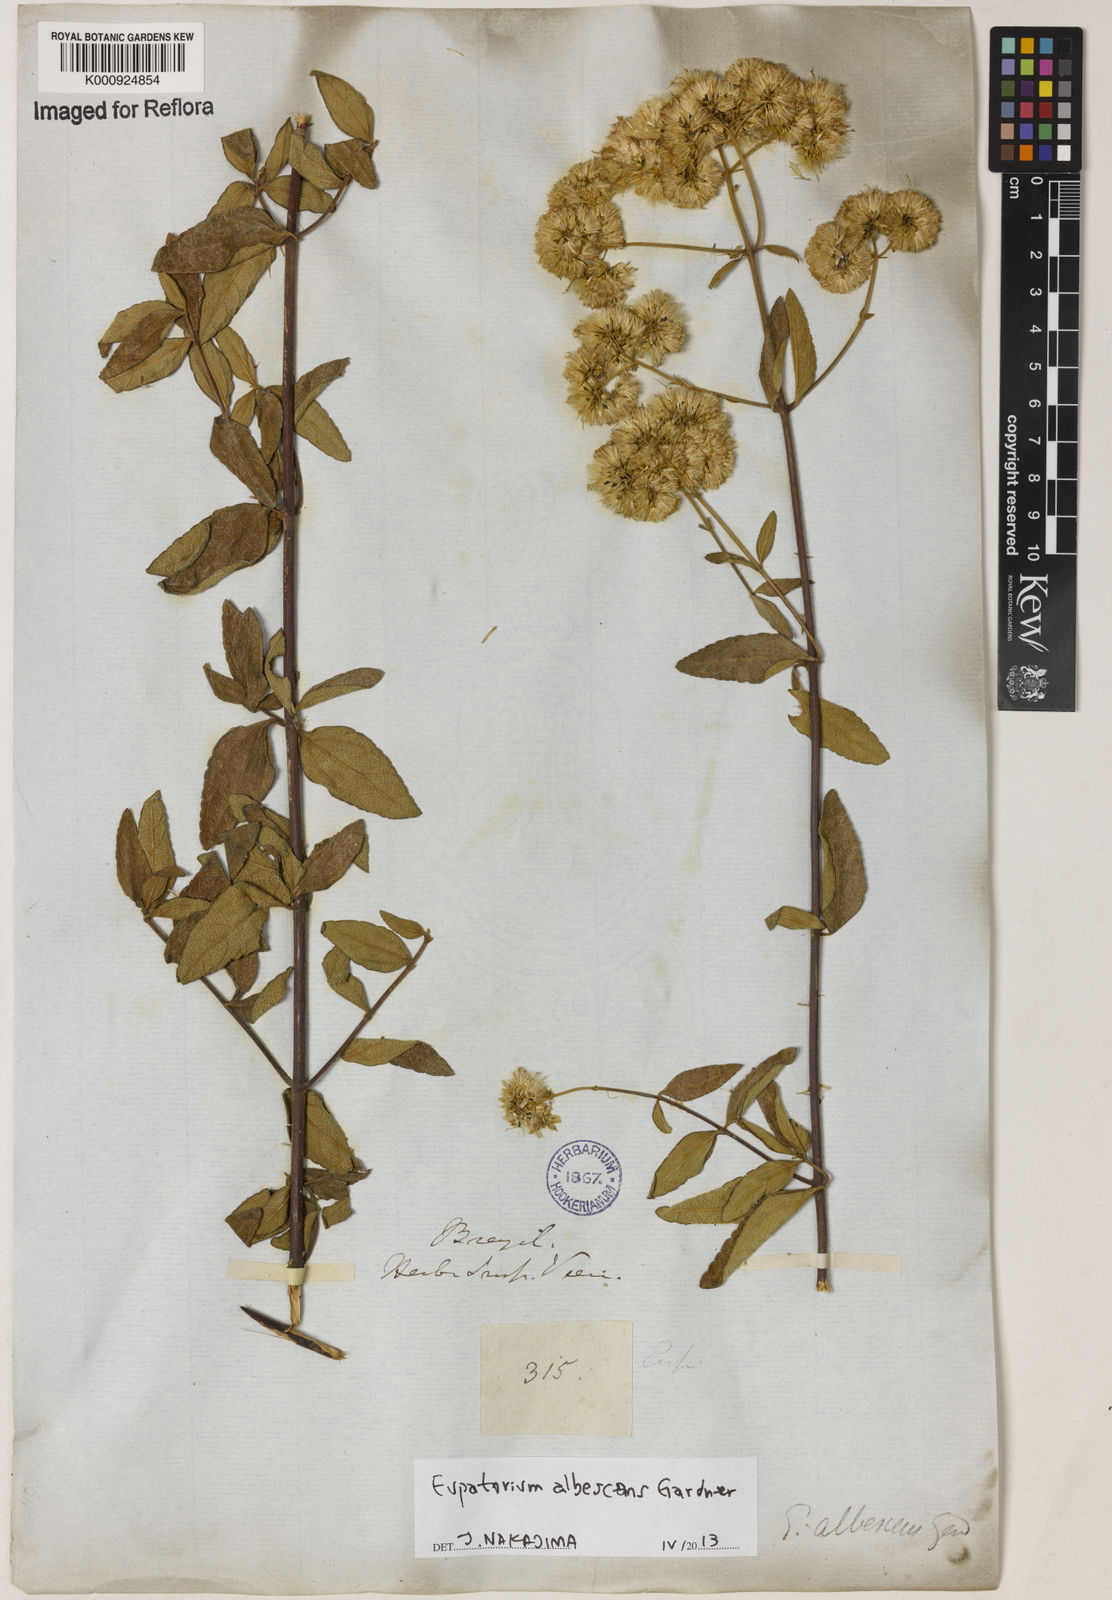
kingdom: Plantae
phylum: Tracheophyta
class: Magnoliopsida
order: Asterales
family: Asteraceae
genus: Austroeupatorium
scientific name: Austroeupatorium albescens
